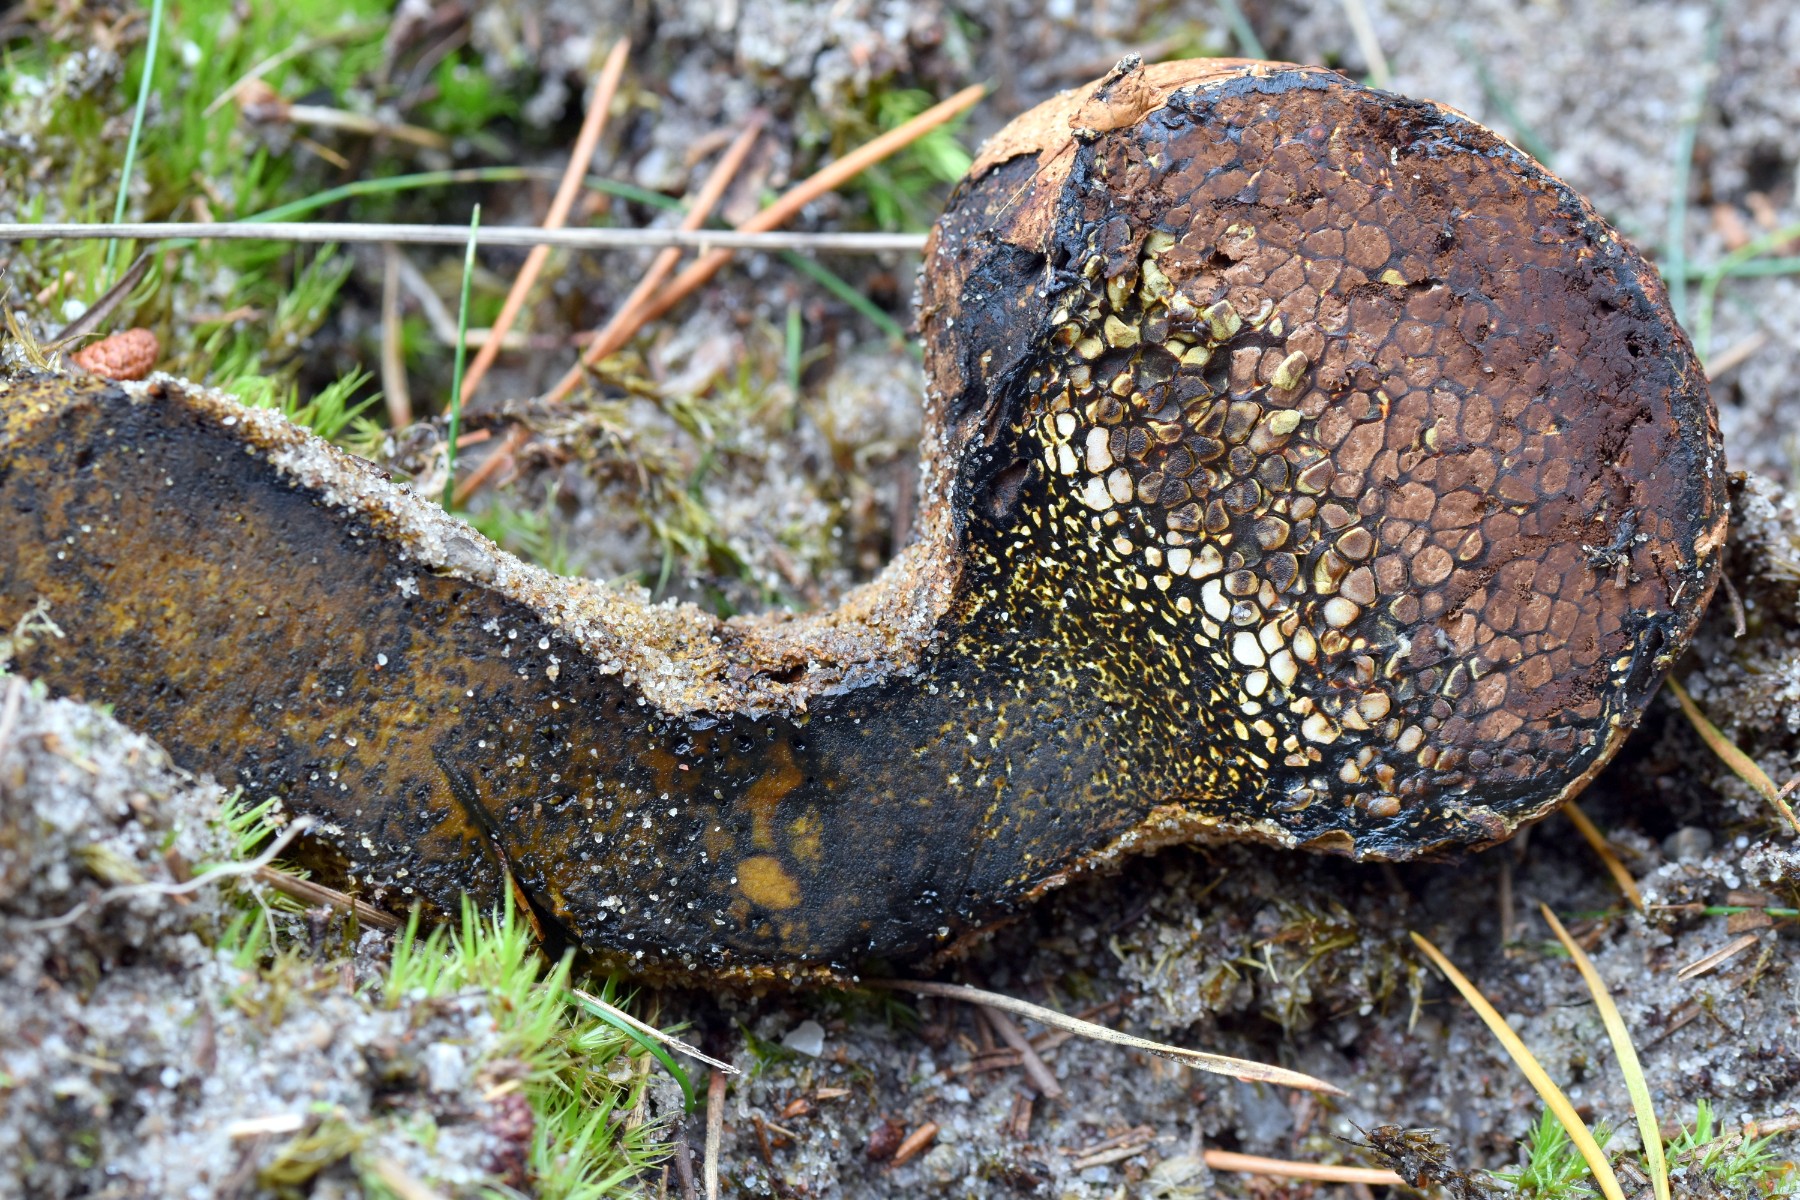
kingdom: Fungi
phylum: Basidiomycota
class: Agaricomycetes
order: Boletales
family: Sclerodermataceae
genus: Pisolithus
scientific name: Pisolithus
